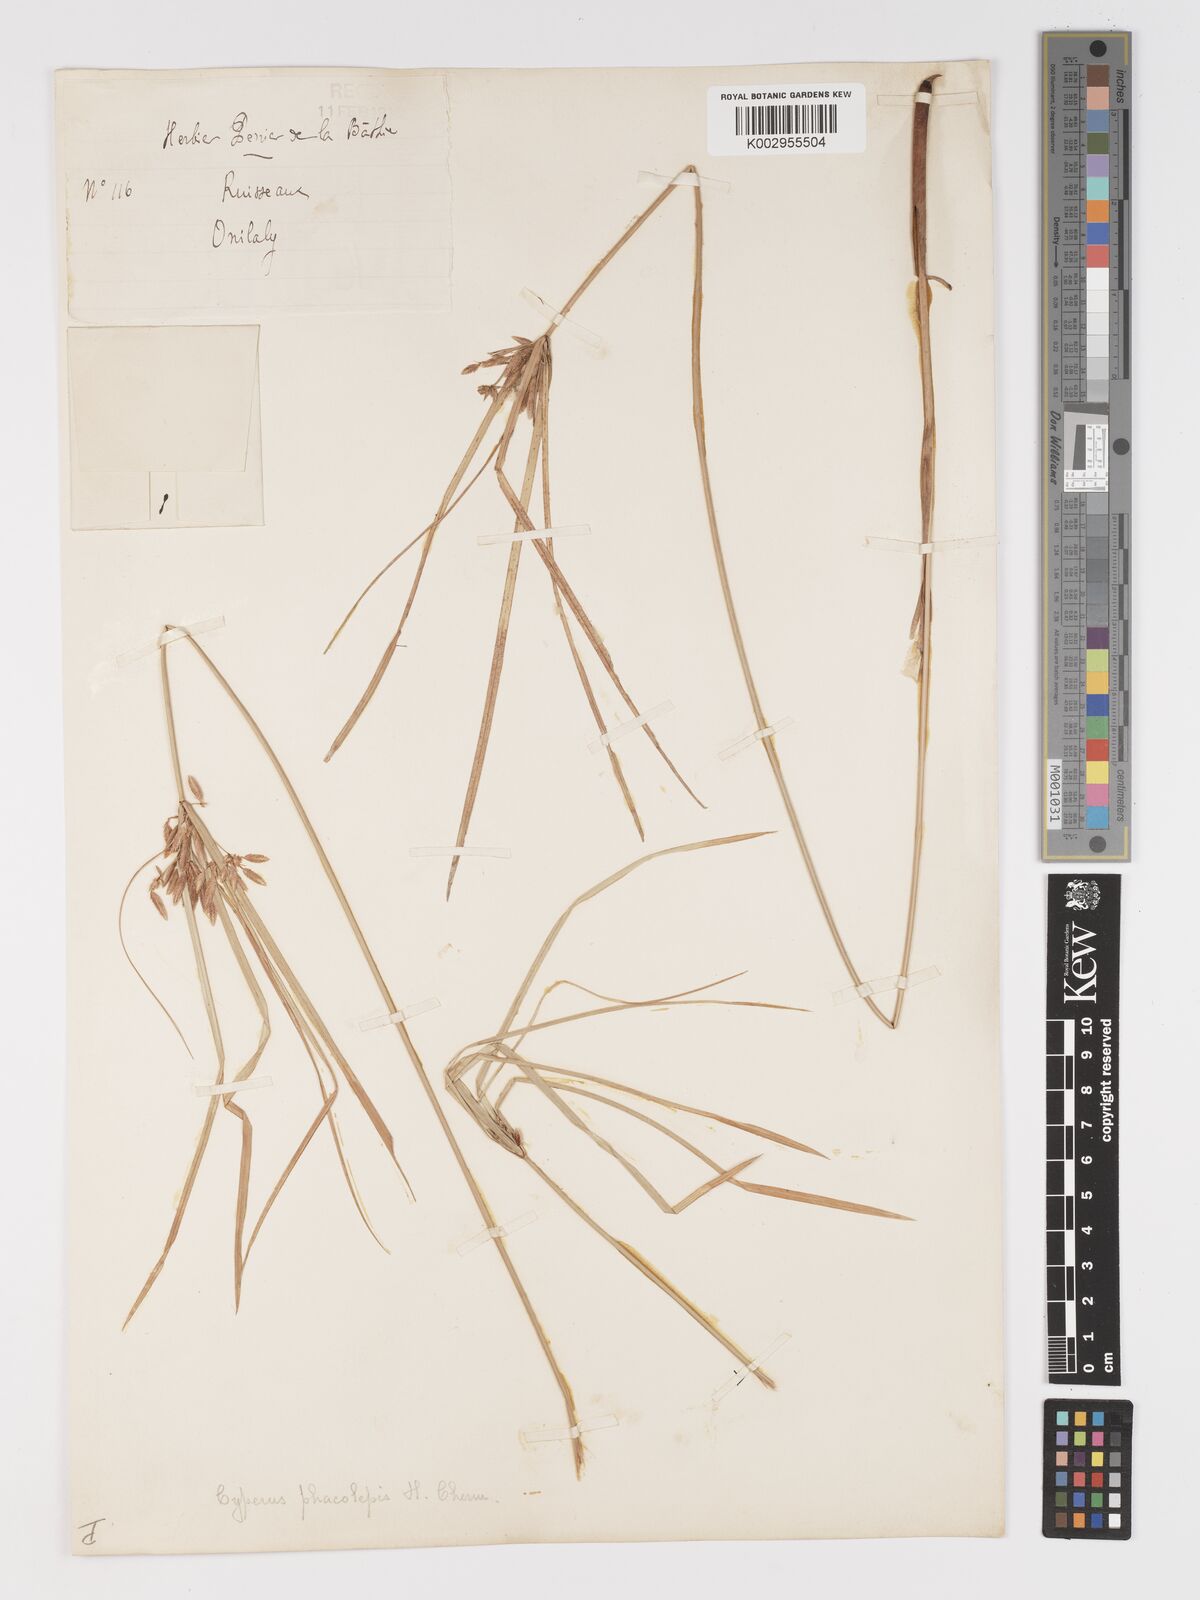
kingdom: Plantae
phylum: Tracheophyta
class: Liliopsida
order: Poales
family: Cyperaceae
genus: Cyperus
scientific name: Cyperus phaeolepis
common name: Madagascar flatsedge
